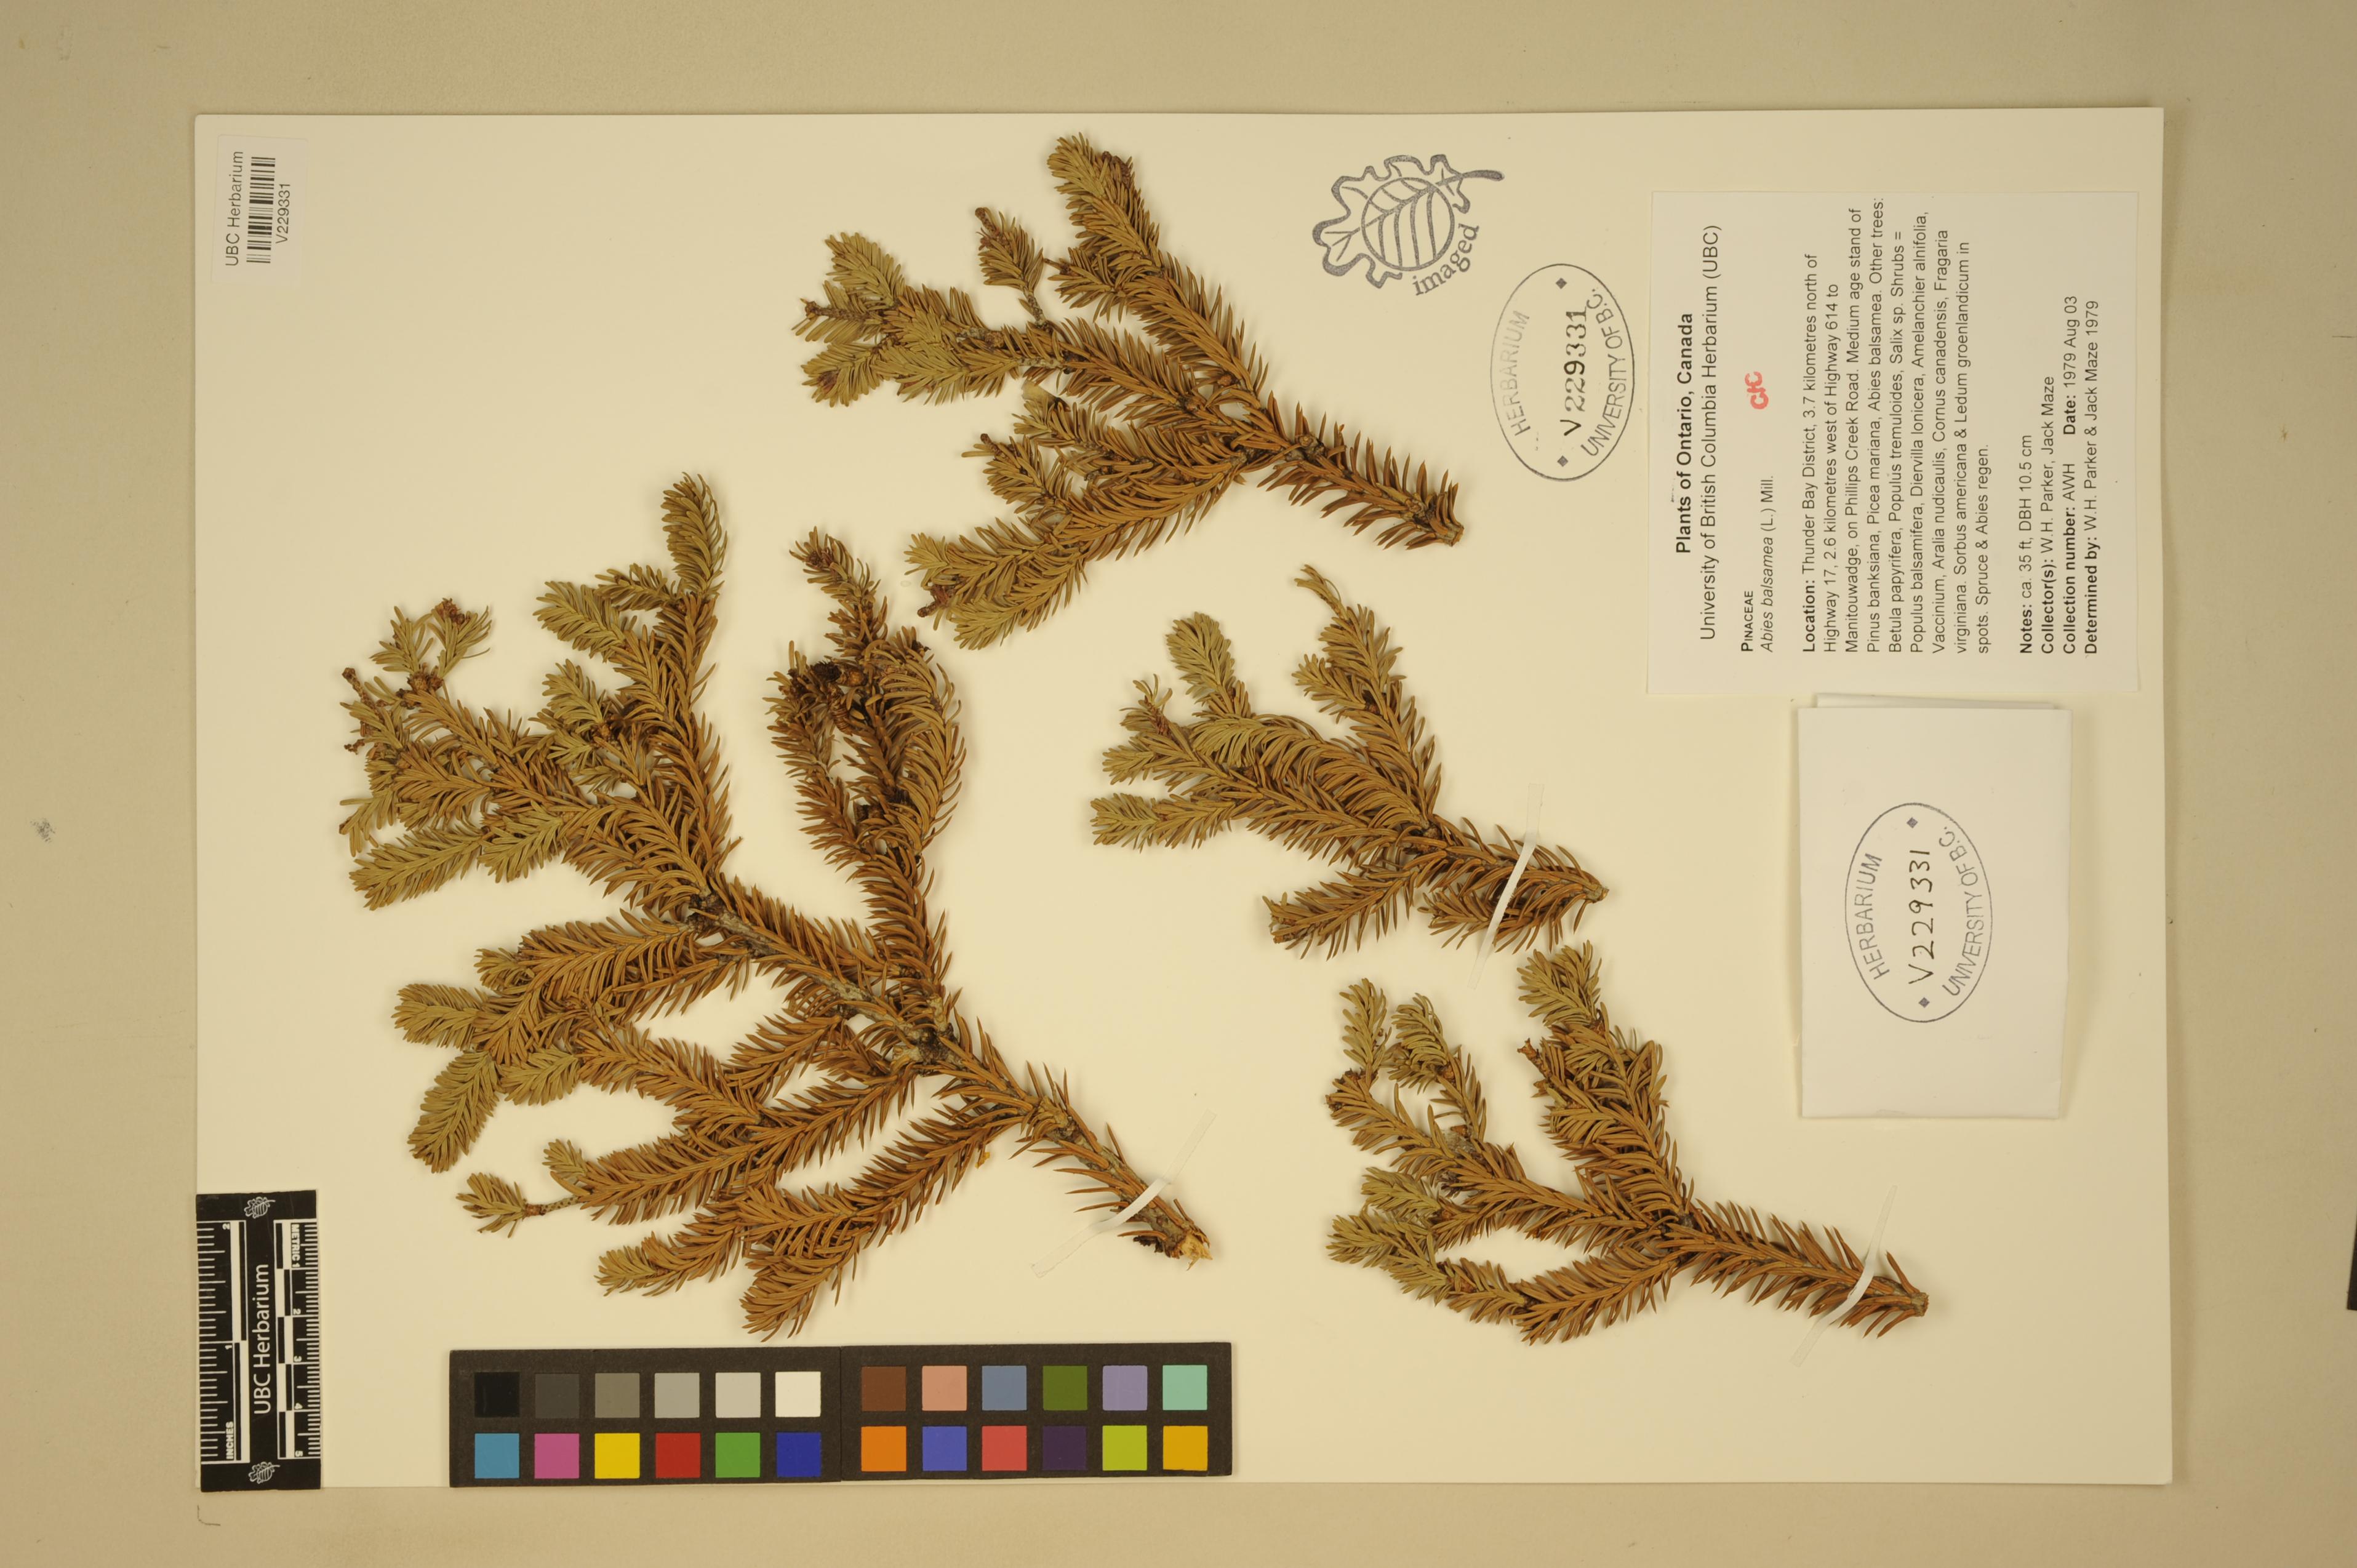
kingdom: Plantae
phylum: Tracheophyta
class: Pinopsida
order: Pinales
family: Pinaceae
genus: Abies
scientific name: Abies balsamea
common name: Balsam fir
